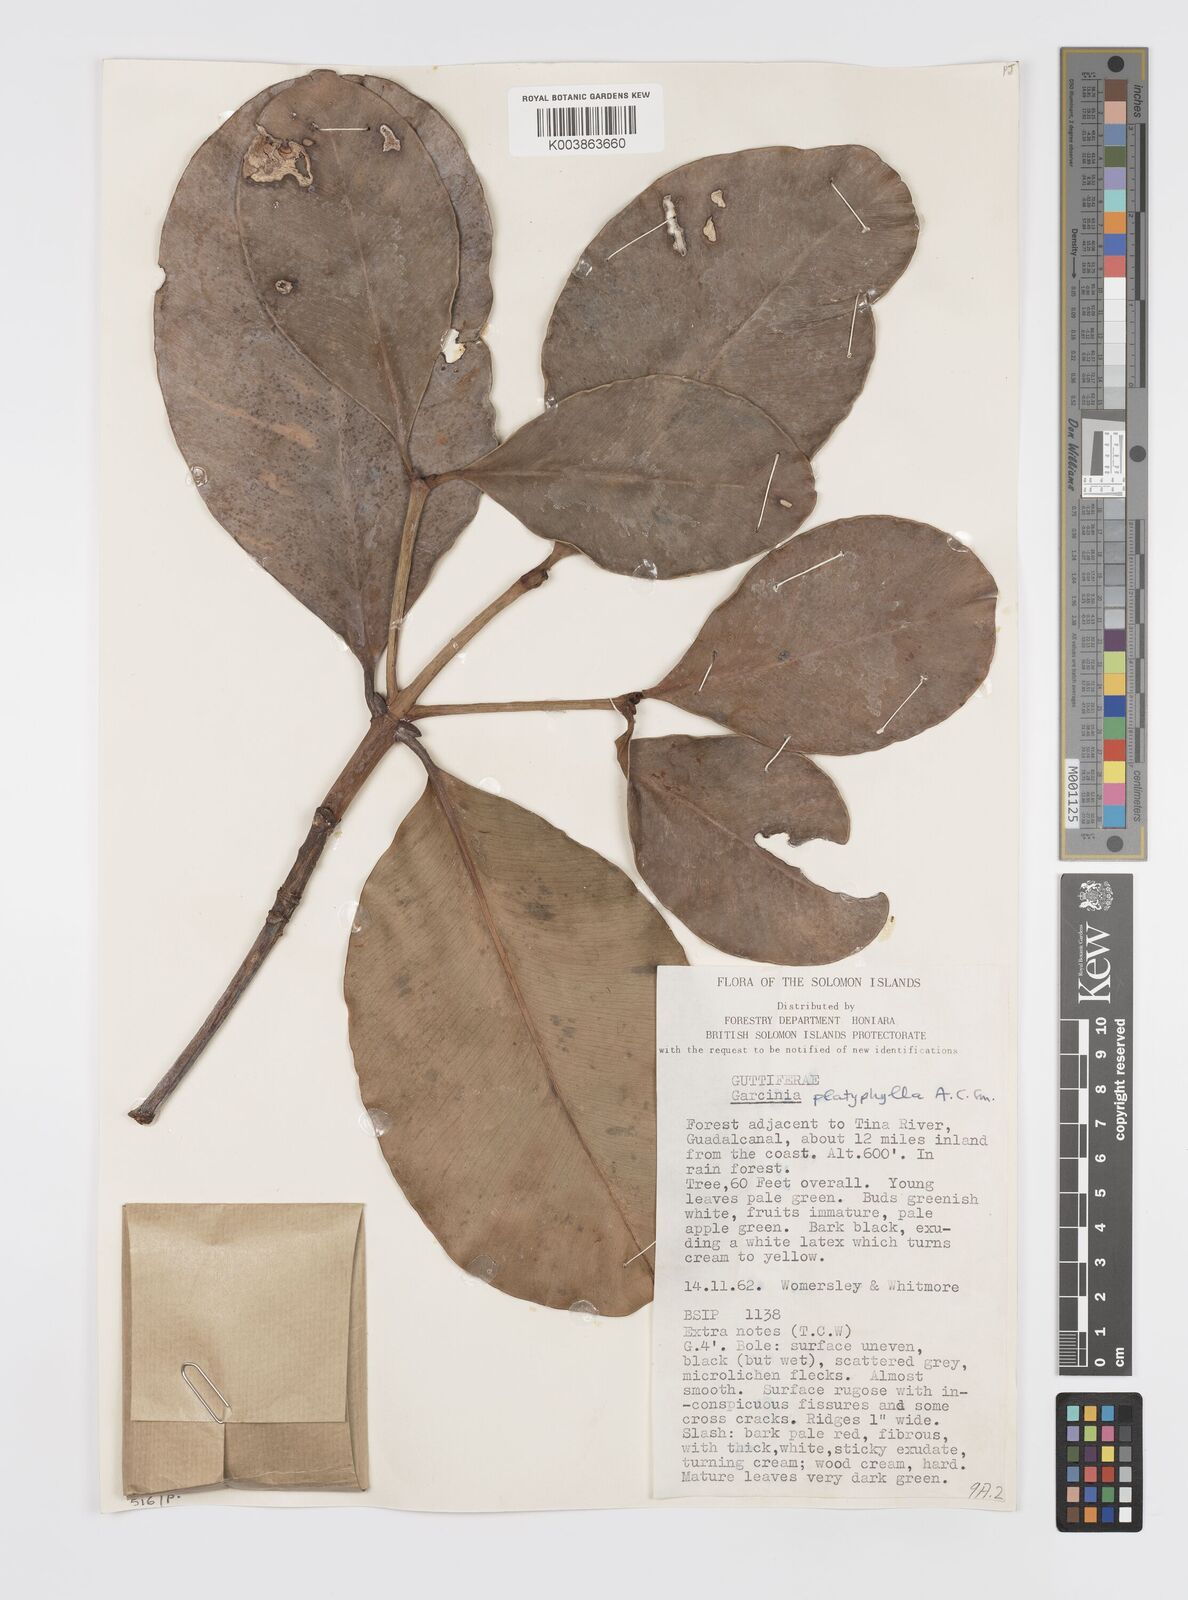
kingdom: Plantae
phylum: Tracheophyta
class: Magnoliopsida
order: Malpighiales
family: Clusiaceae
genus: Garcinia
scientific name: Garcinia platyphylla
